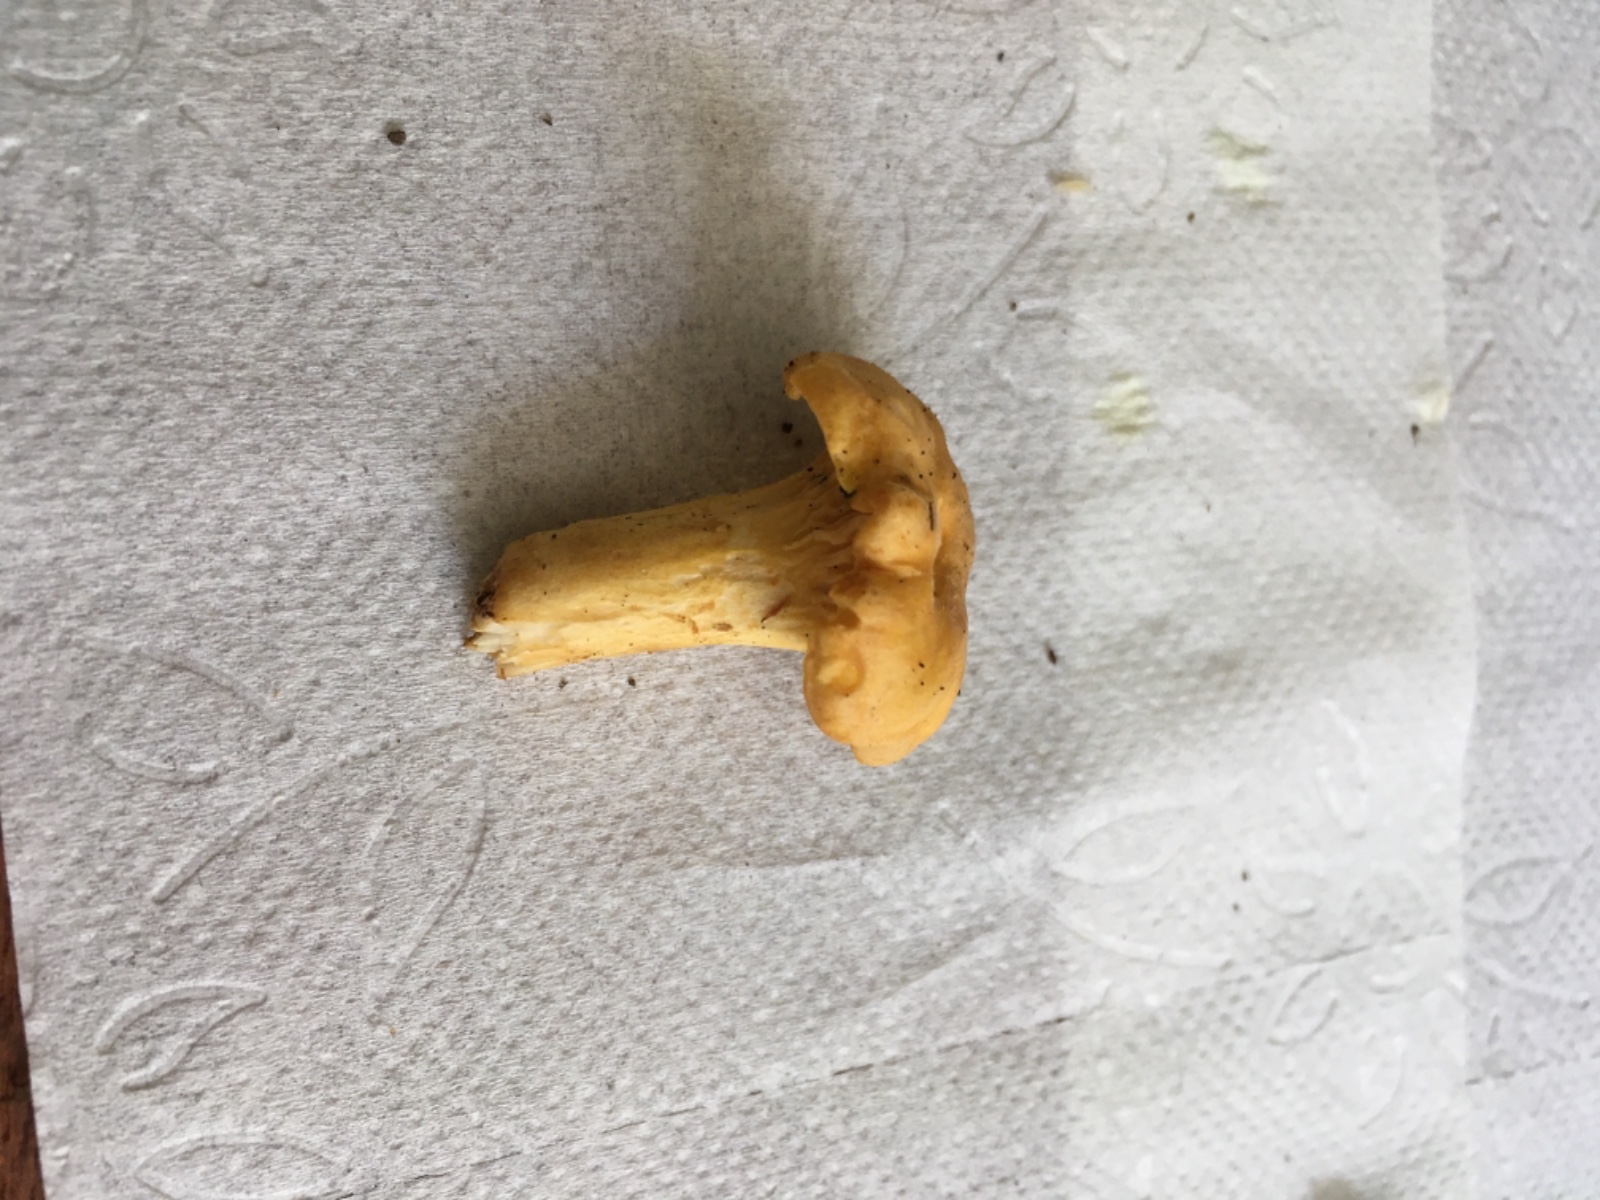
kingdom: Fungi
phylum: Basidiomycota
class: Agaricomycetes
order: Cantharellales
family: Hydnaceae
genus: Cantharellus
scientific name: Cantharellus cibarius
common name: almindelig kantarel
